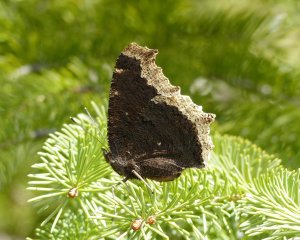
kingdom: Animalia
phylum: Arthropoda
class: Insecta
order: Lepidoptera
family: Nymphalidae
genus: Nymphalis
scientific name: Nymphalis antiopa
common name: Mourning Cloak
